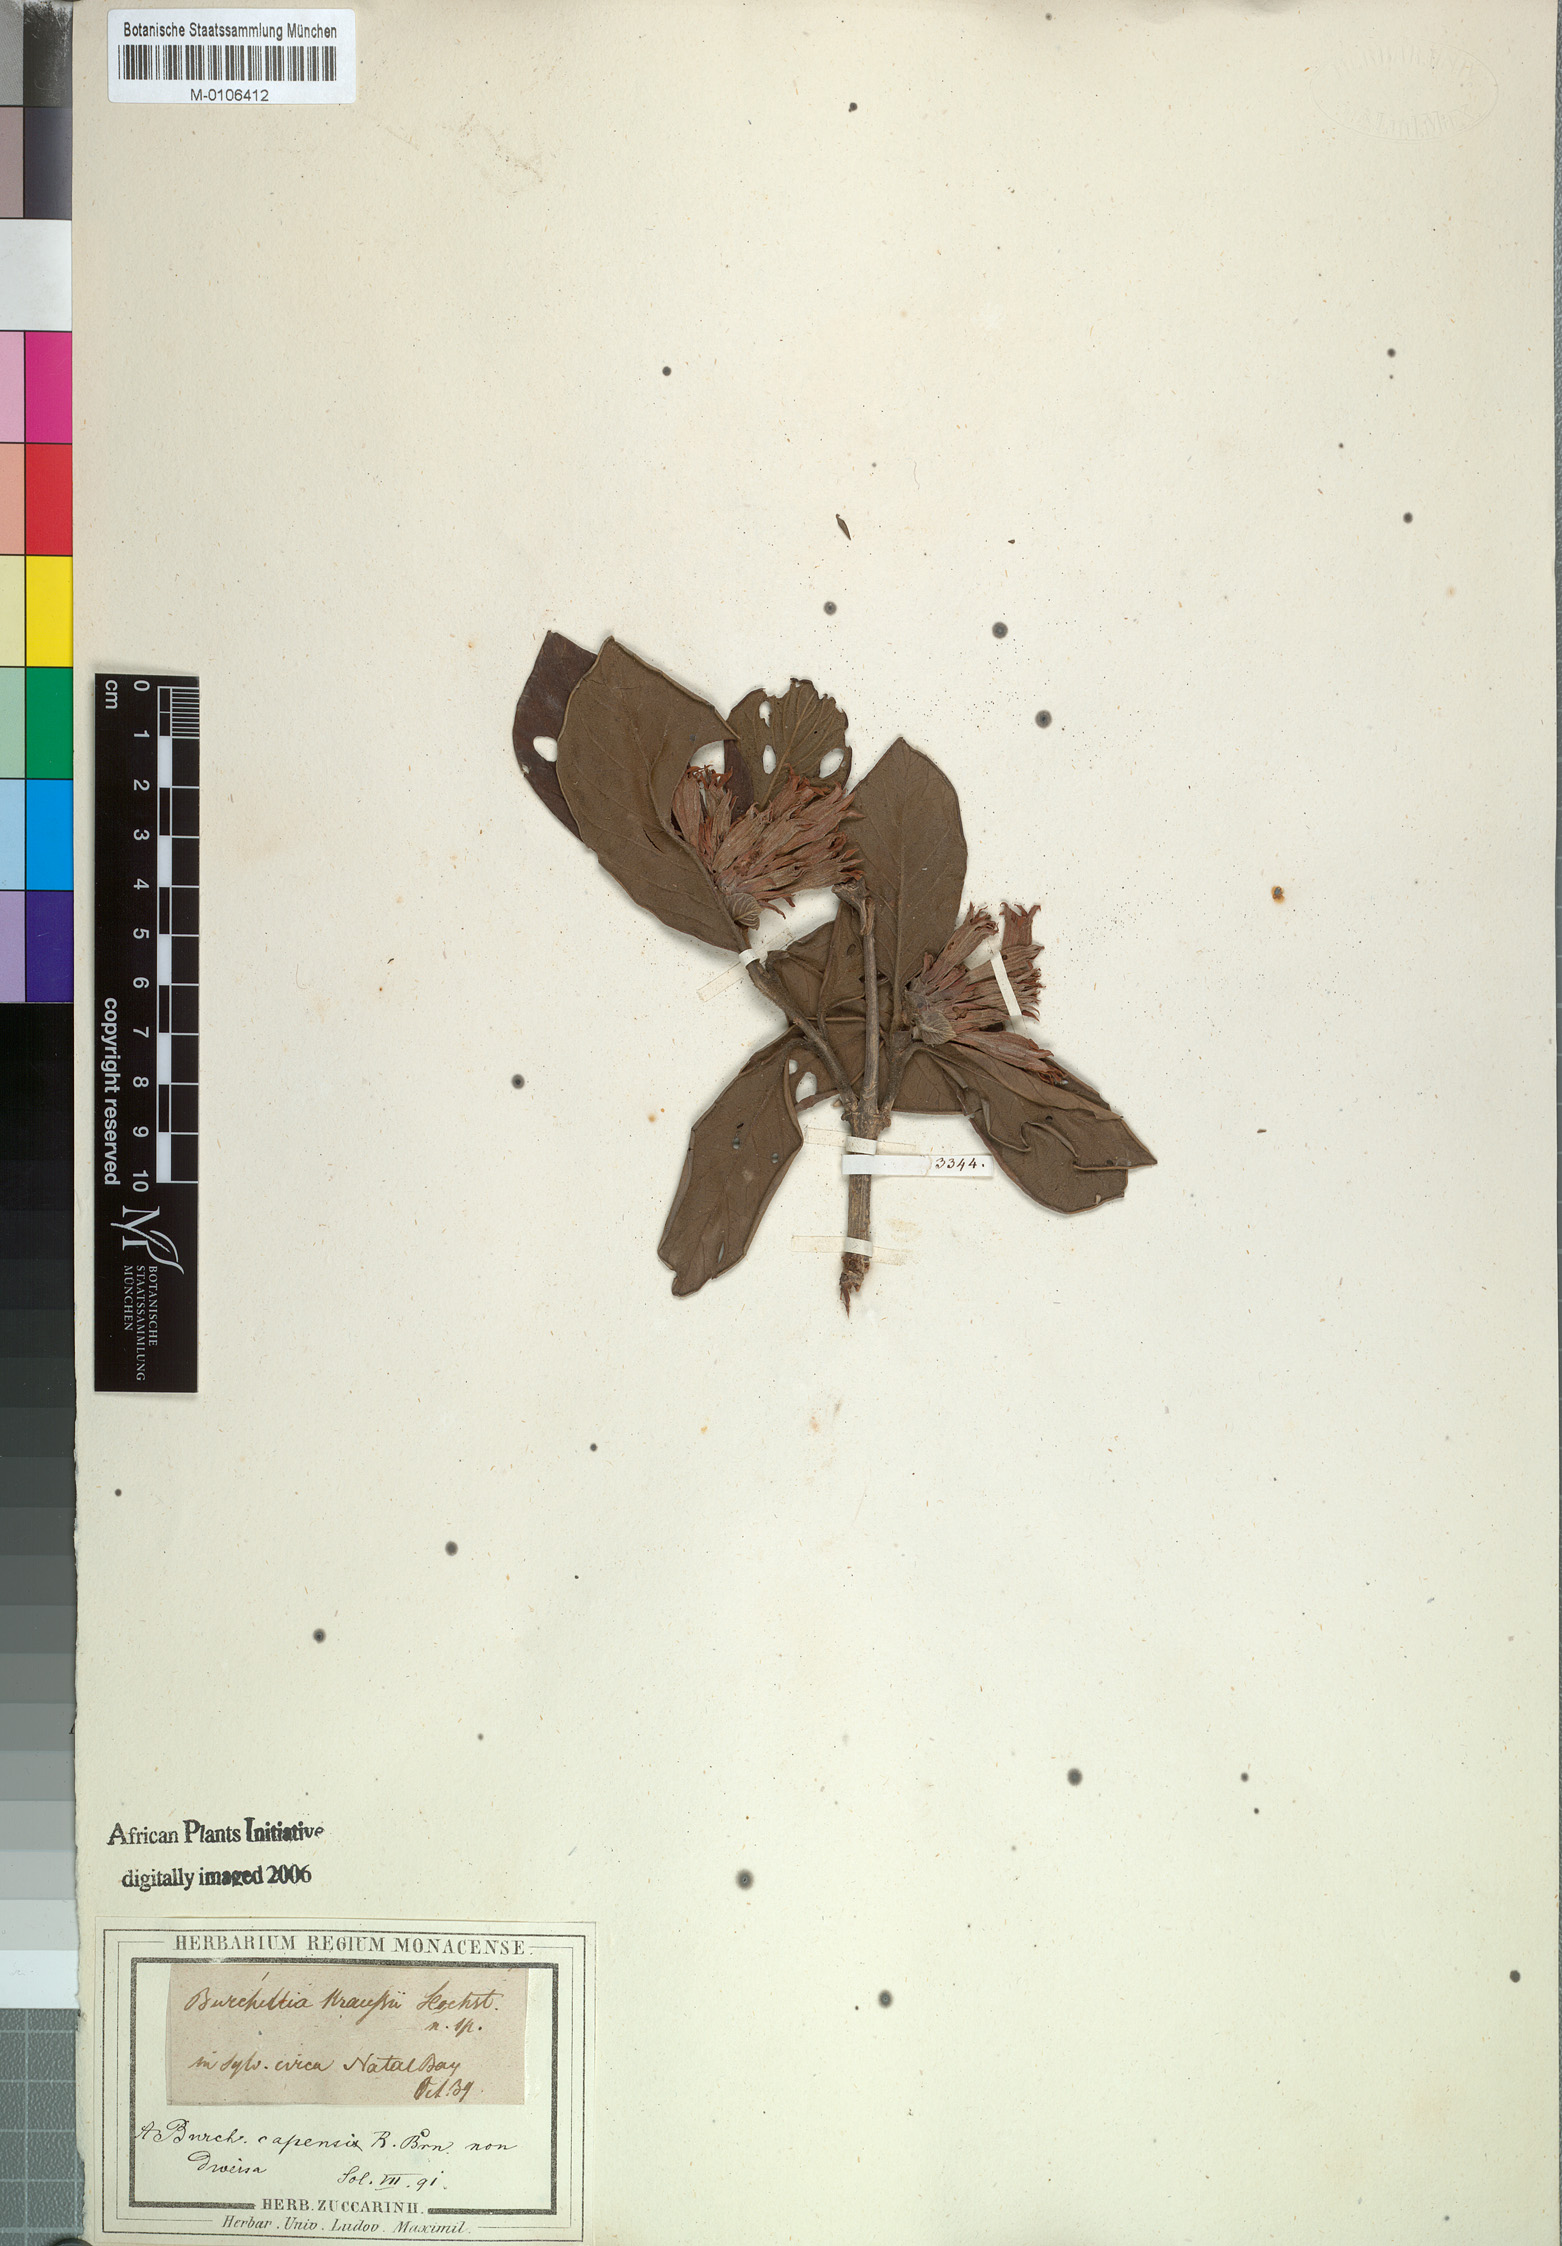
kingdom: Plantae
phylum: Tracheophyta
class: Magnoliopsida
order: Gentianales
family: Rubiaceae
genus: Burchellia
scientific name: Burchellia bubalina
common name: Wild pomegranate
